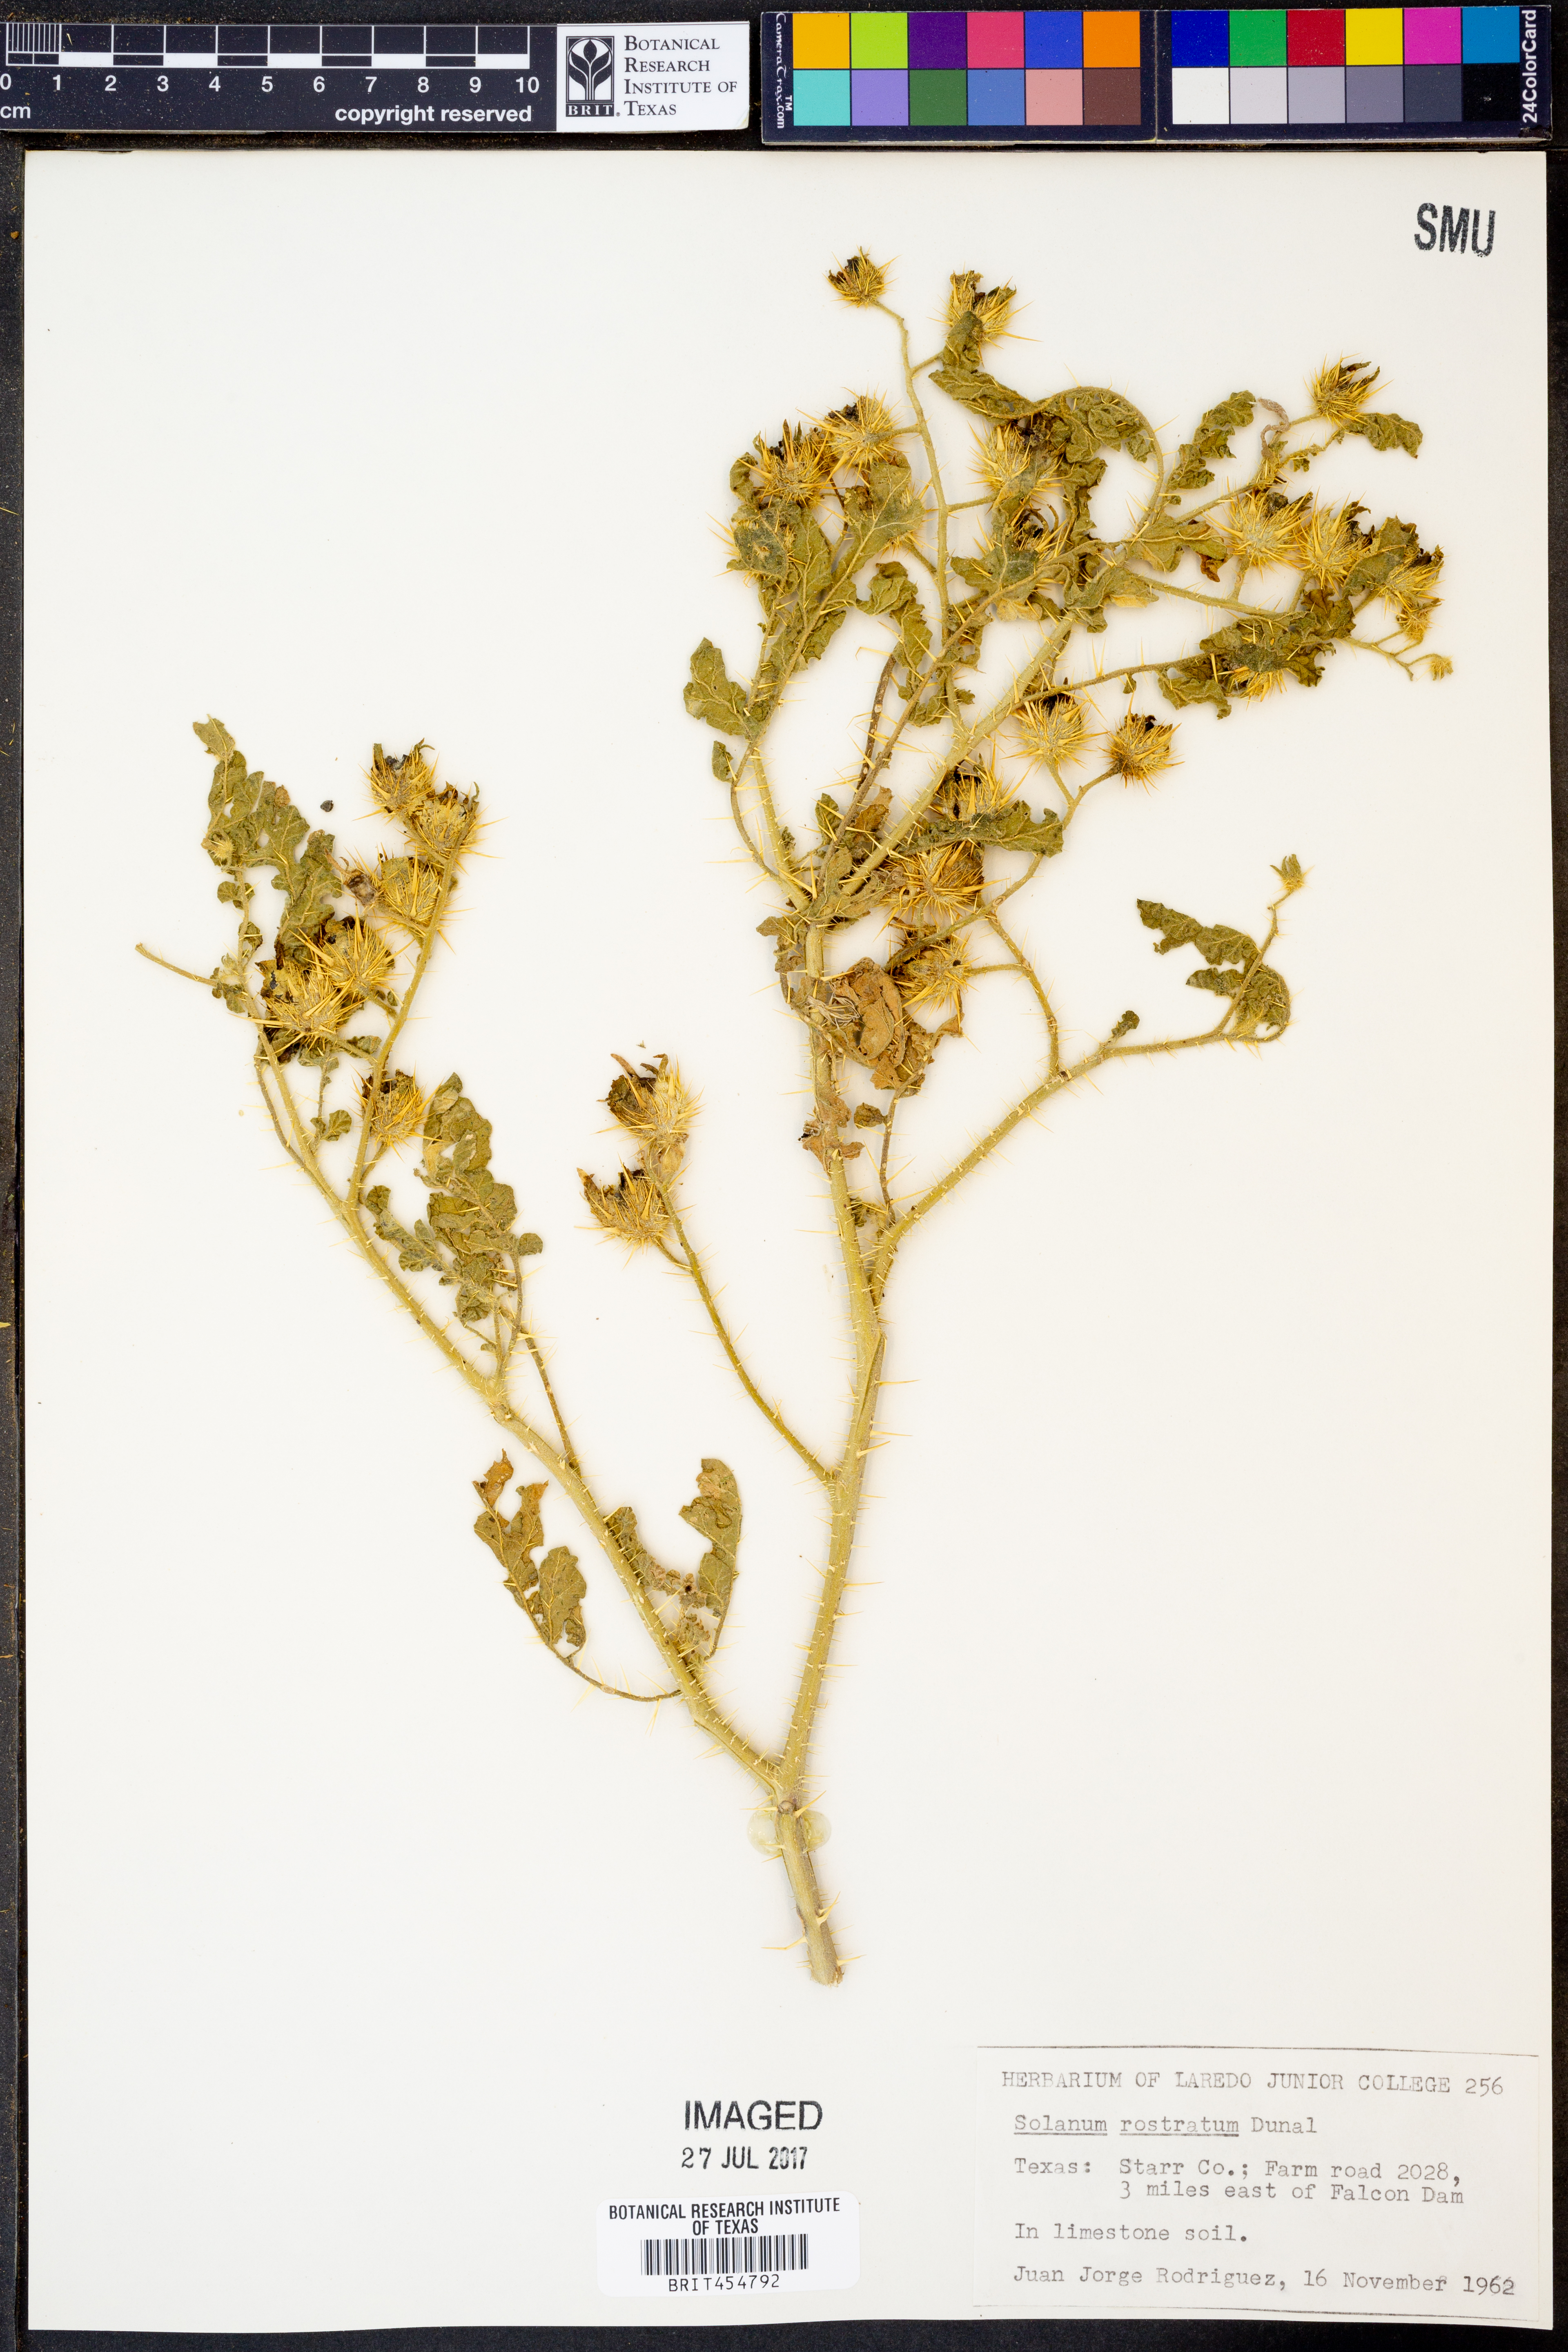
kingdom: Plantae
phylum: Tracheophyta
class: Magnoliopsida
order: Solanales
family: Solanaceae
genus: Solanum
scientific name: Solanum angustifolium
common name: Buffalobur nightshade
